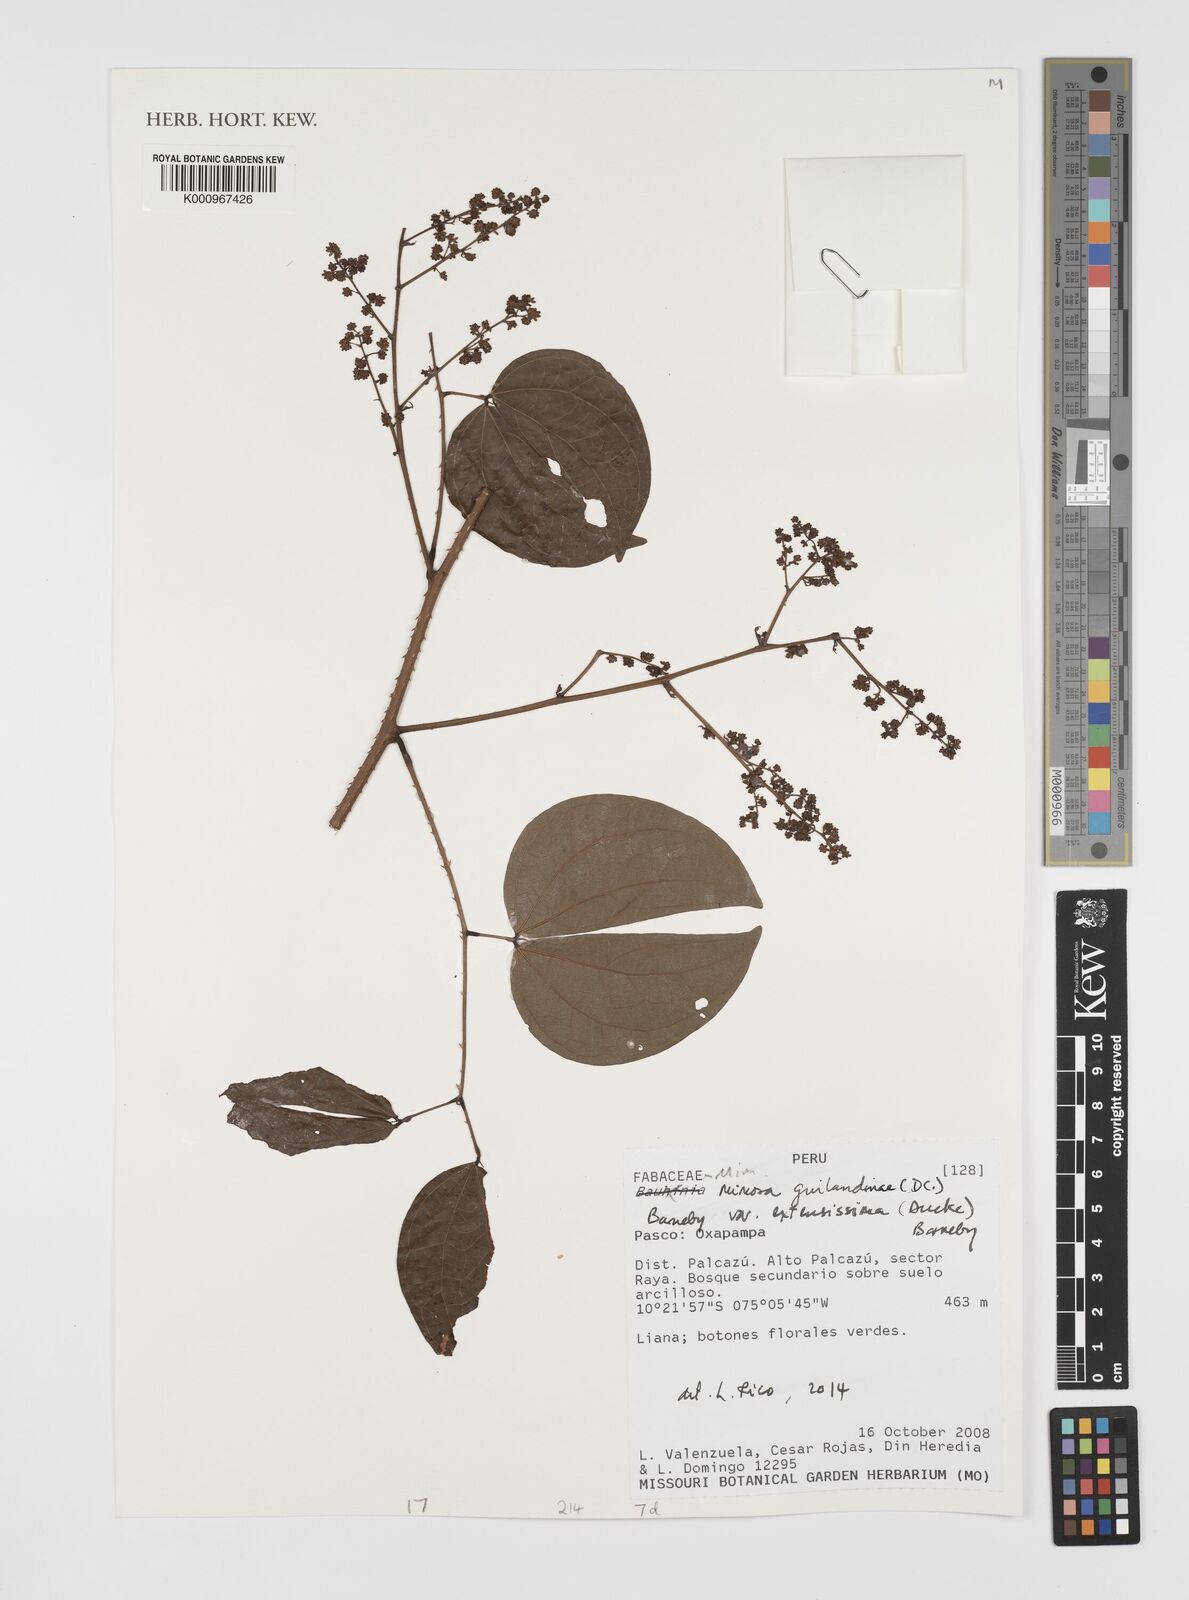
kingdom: Plantae
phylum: Tracheophyta
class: Magnoliopsida
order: Fabales
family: Fabaceae
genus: Mimosa
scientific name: Mimosa guilandinae
